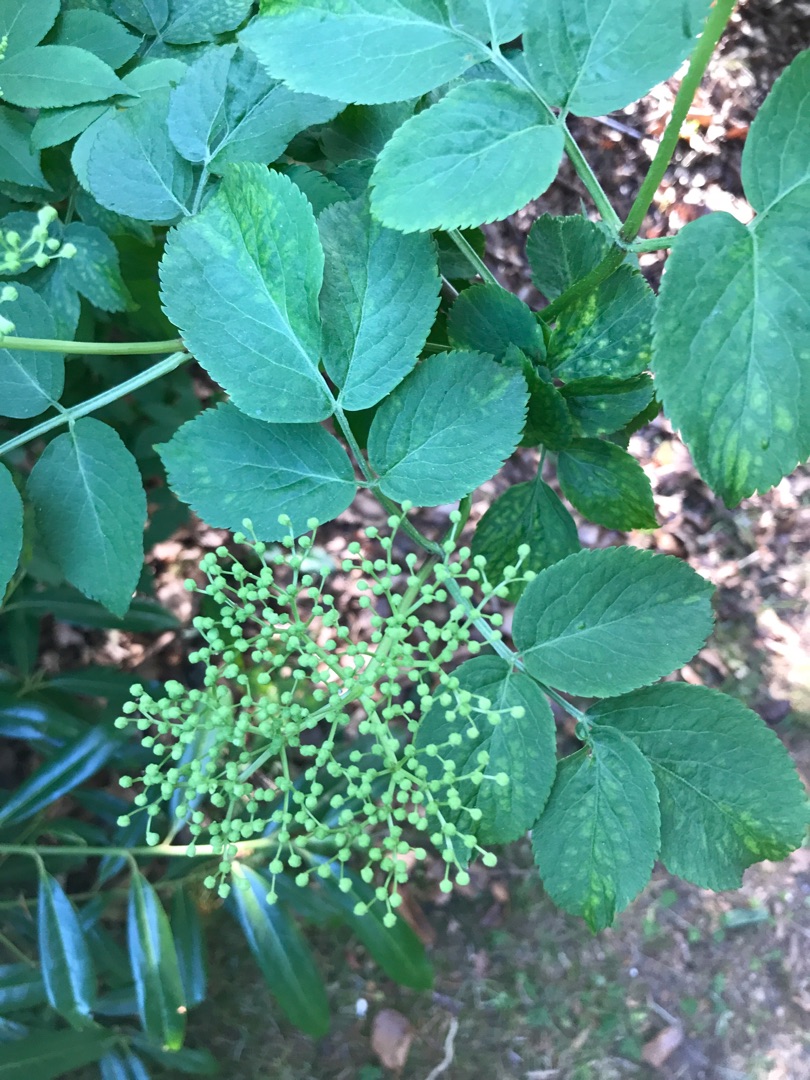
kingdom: Plantae
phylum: Tracheophyta
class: Magnoliopsida
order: Dipsacales
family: Viburnaceae
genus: Sambucus
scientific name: Sambucus nigra
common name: Almindelig hyld
